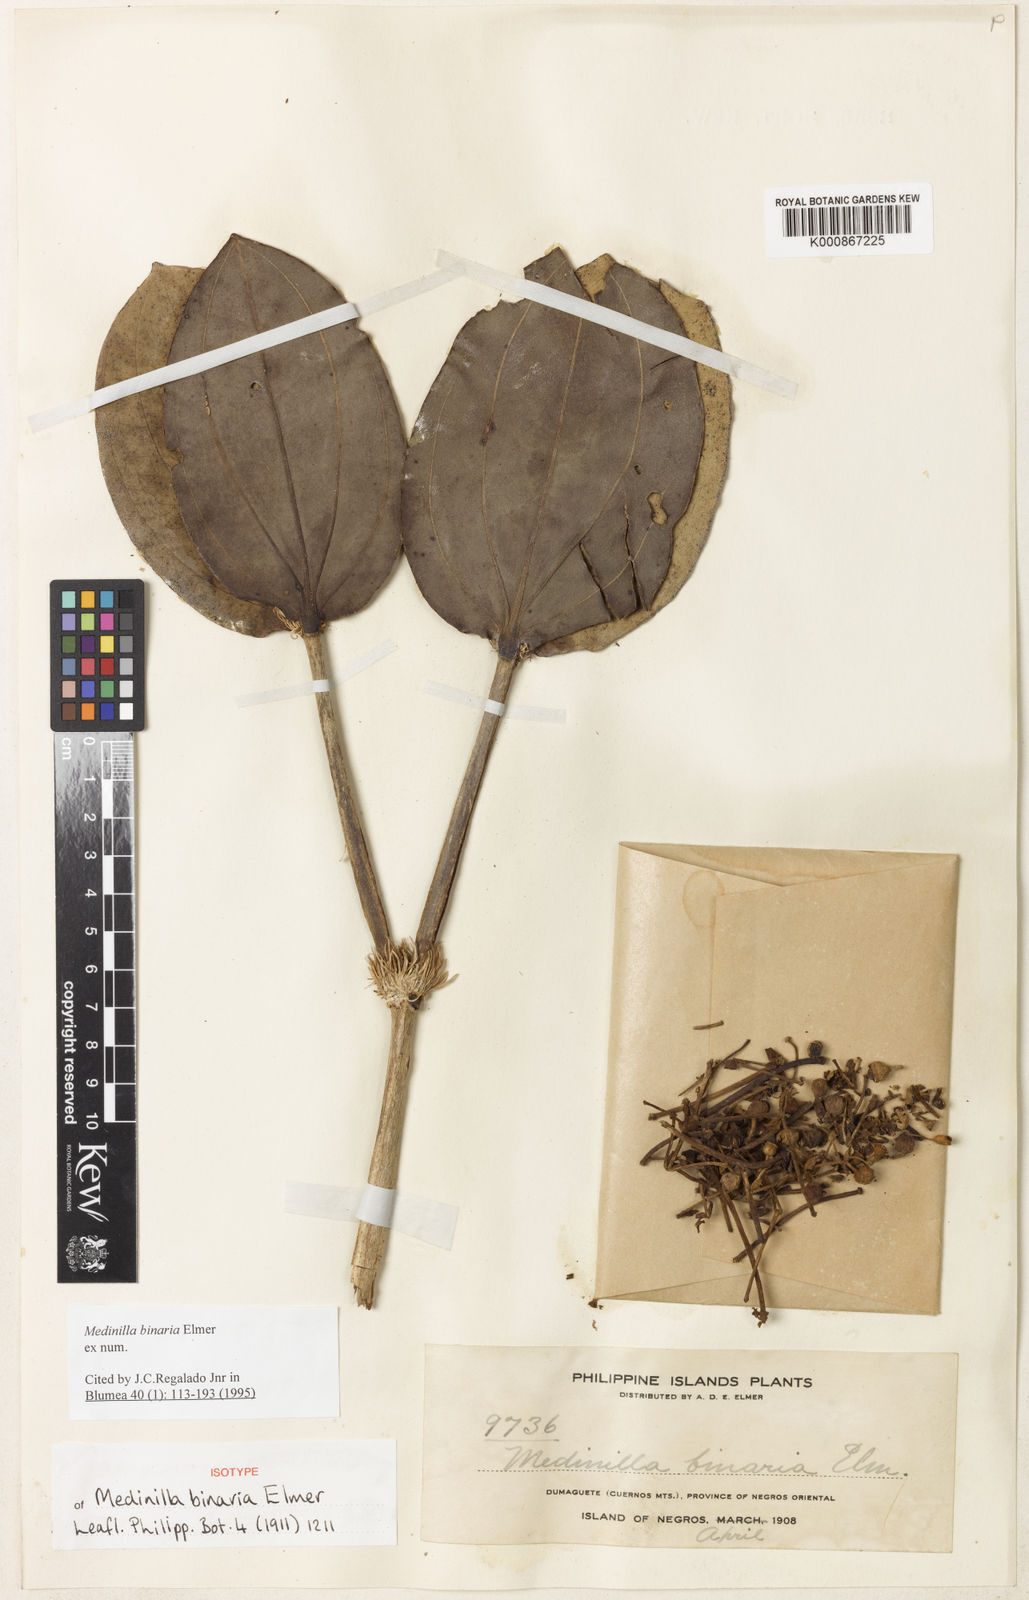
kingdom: Plantae
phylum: Tracheophyta
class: Magnoliopsida
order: Myrtales
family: Melastomataceae
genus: Medinilla
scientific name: Medinilla binaria
